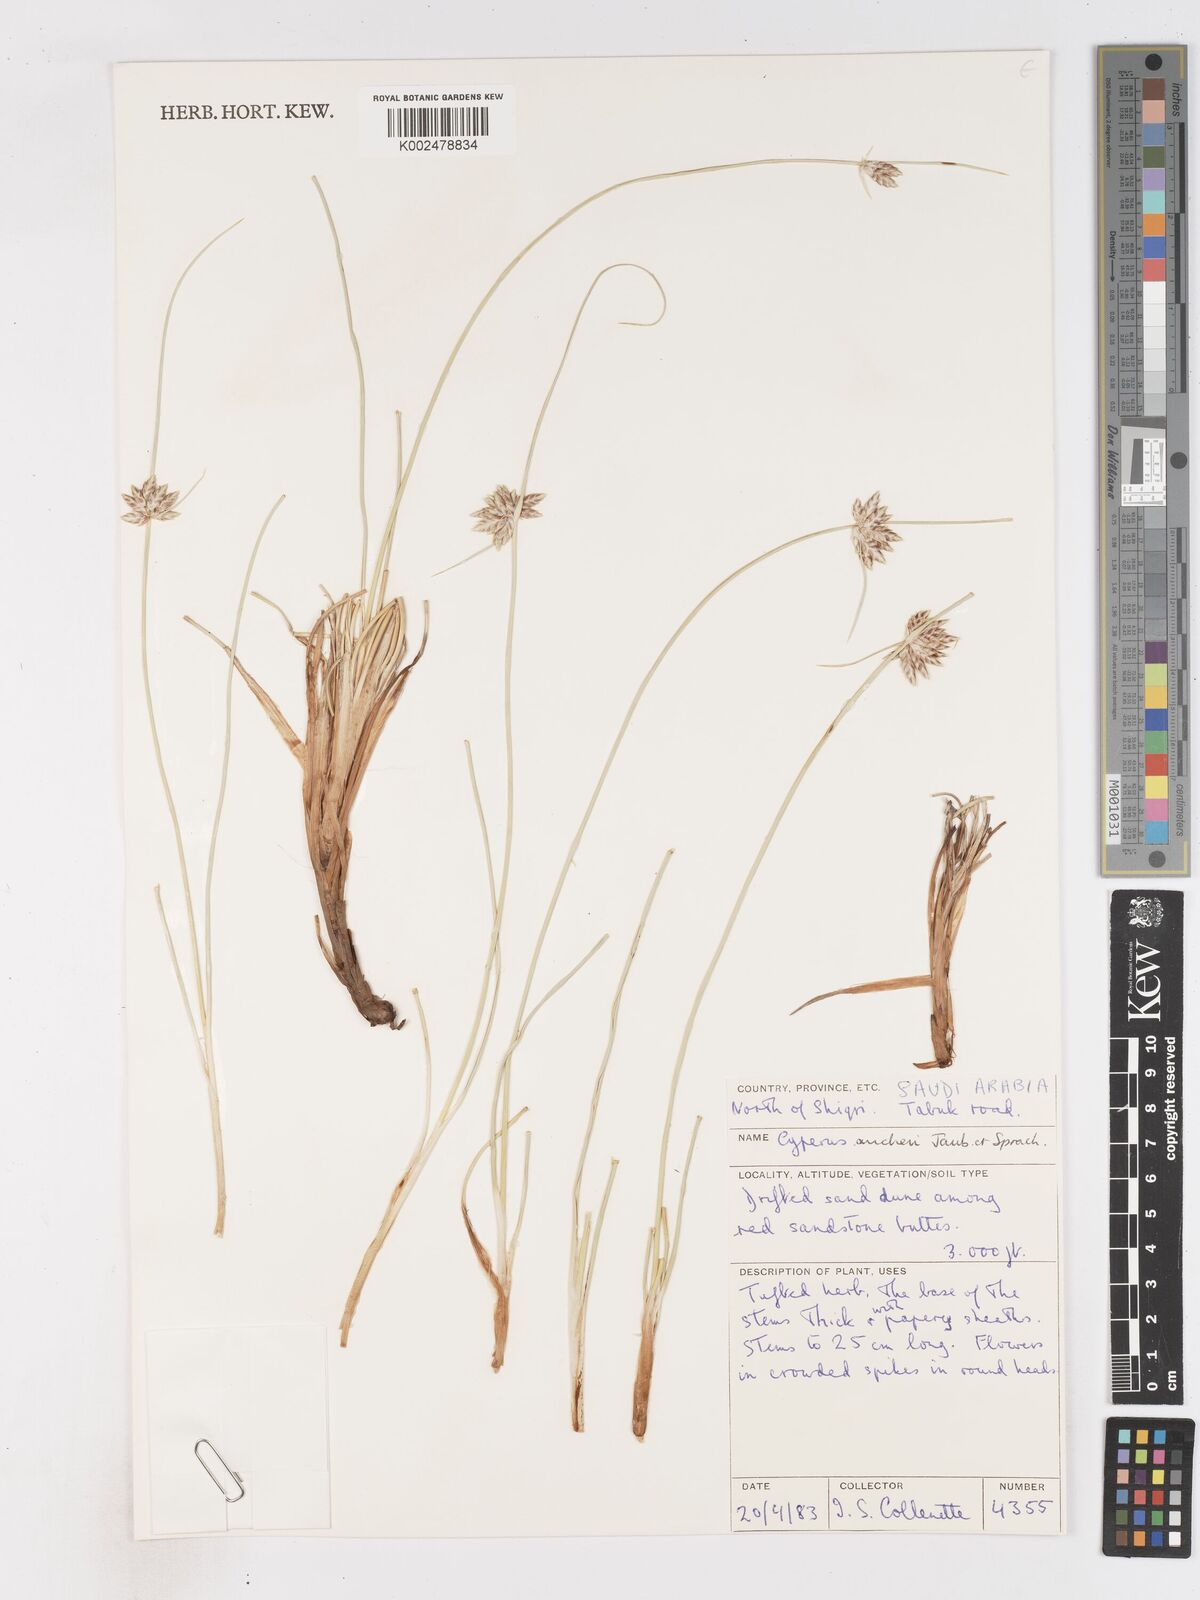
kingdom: Plantae
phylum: Tracheophyta
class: Liliopsida
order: Poales
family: Cyperaceae
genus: Cyperus
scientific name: Cyperus aucheri
